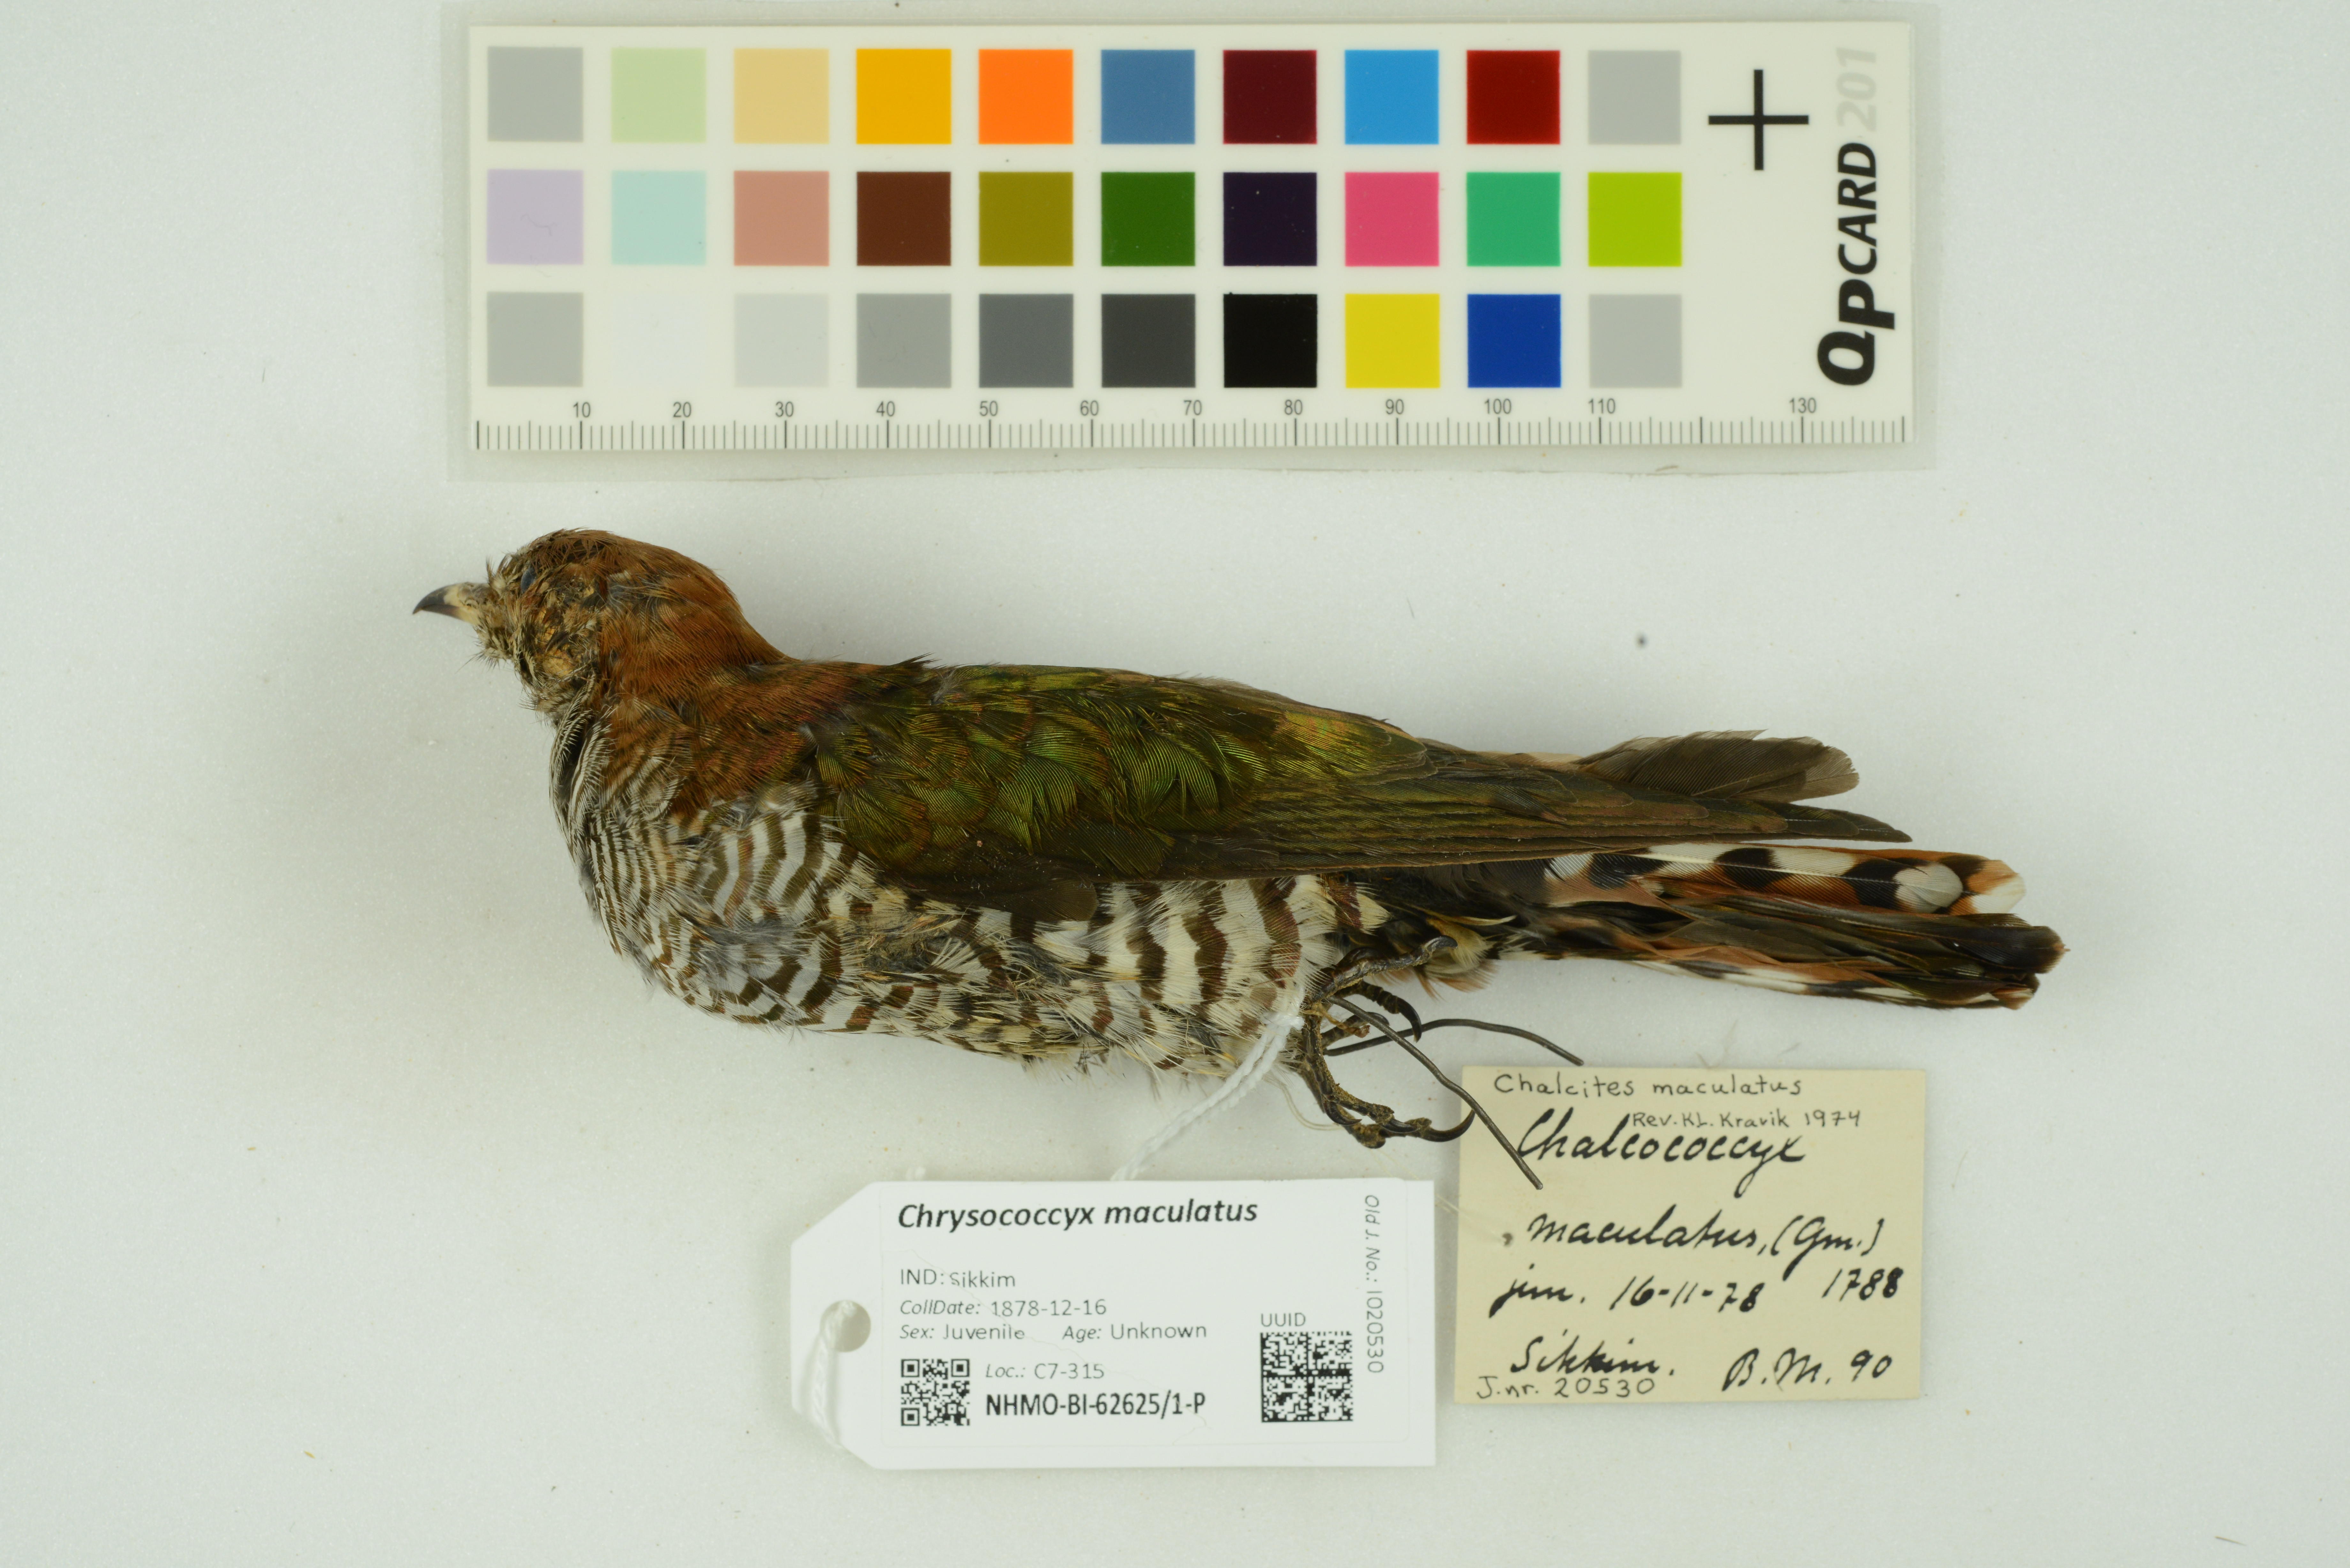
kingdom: Animalia
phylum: Chordata
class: Aves
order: Cuculiformes
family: Cuculidae
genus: Chrysococcyx
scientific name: Chrysococcyx maculatus
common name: Asian emerald cuckoo
